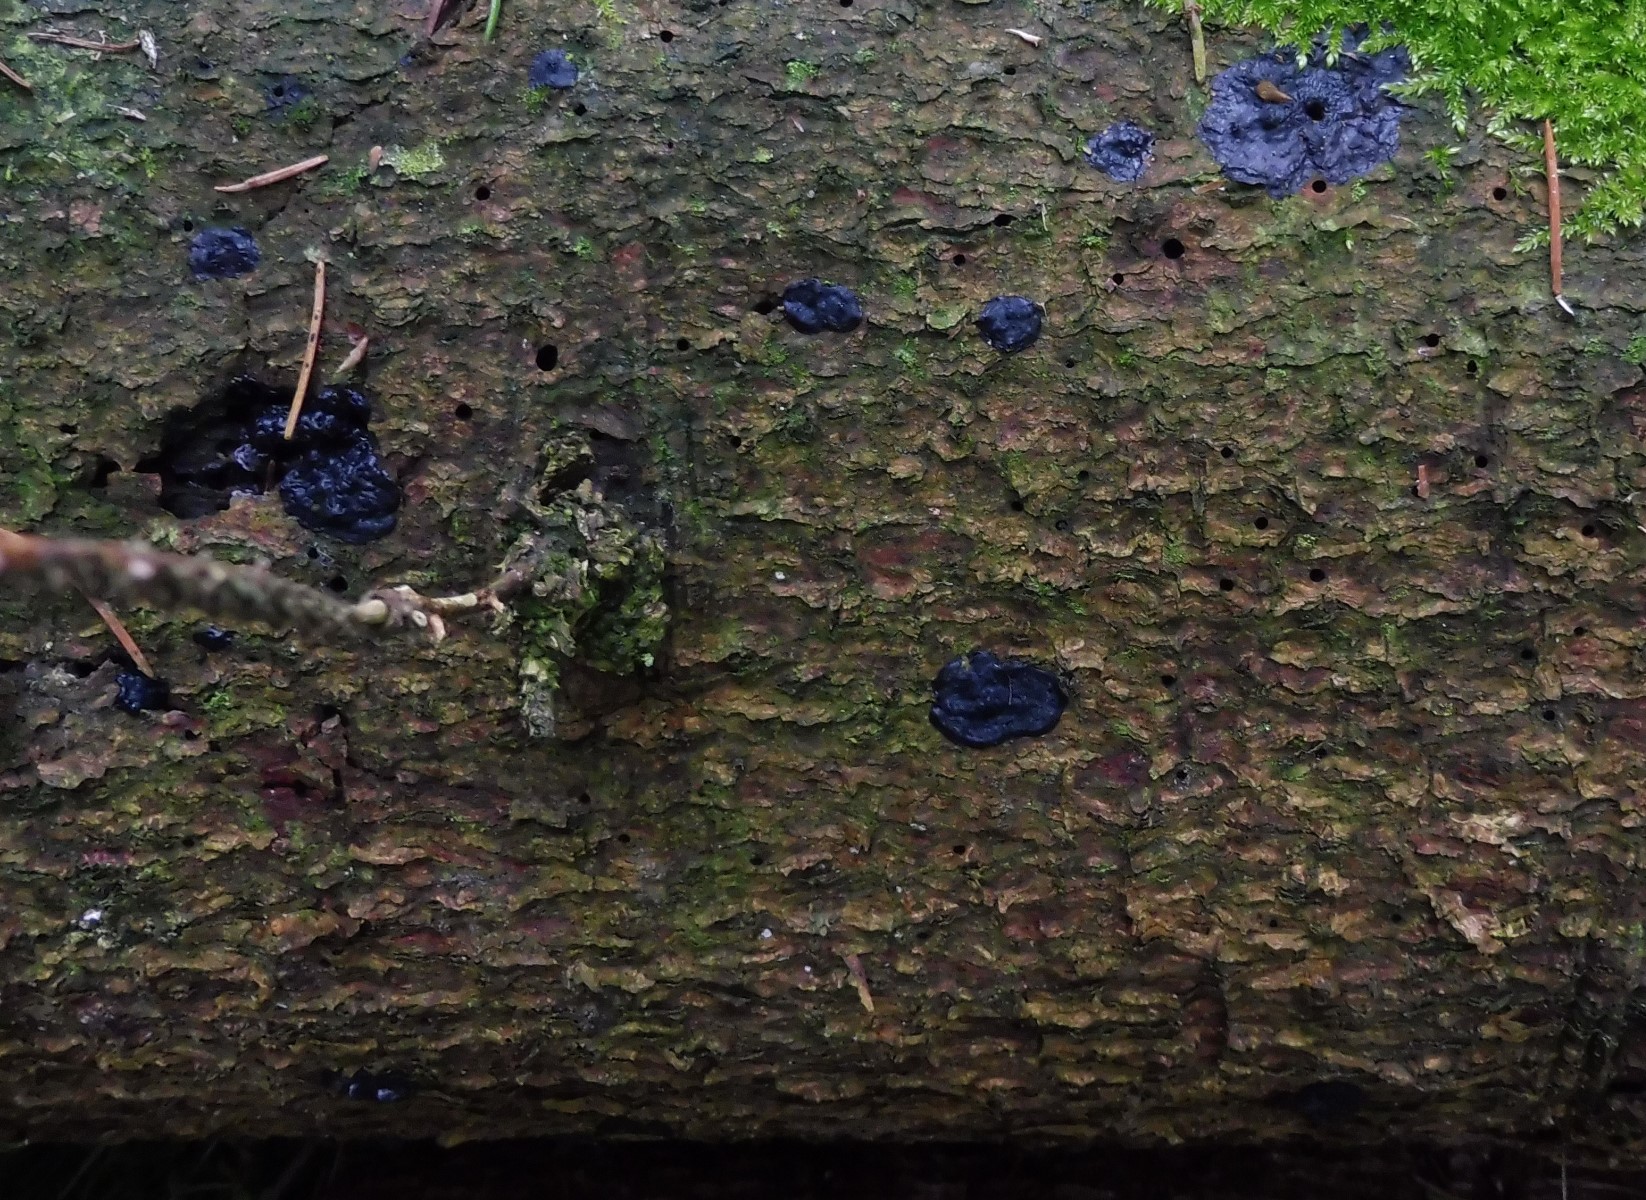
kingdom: Fungi
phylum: Basidiomycota
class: Agaricomycetes
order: Auriculariales
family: Auriculariaceae
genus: Exidia
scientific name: Exidia pithya
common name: gran-bævretop
